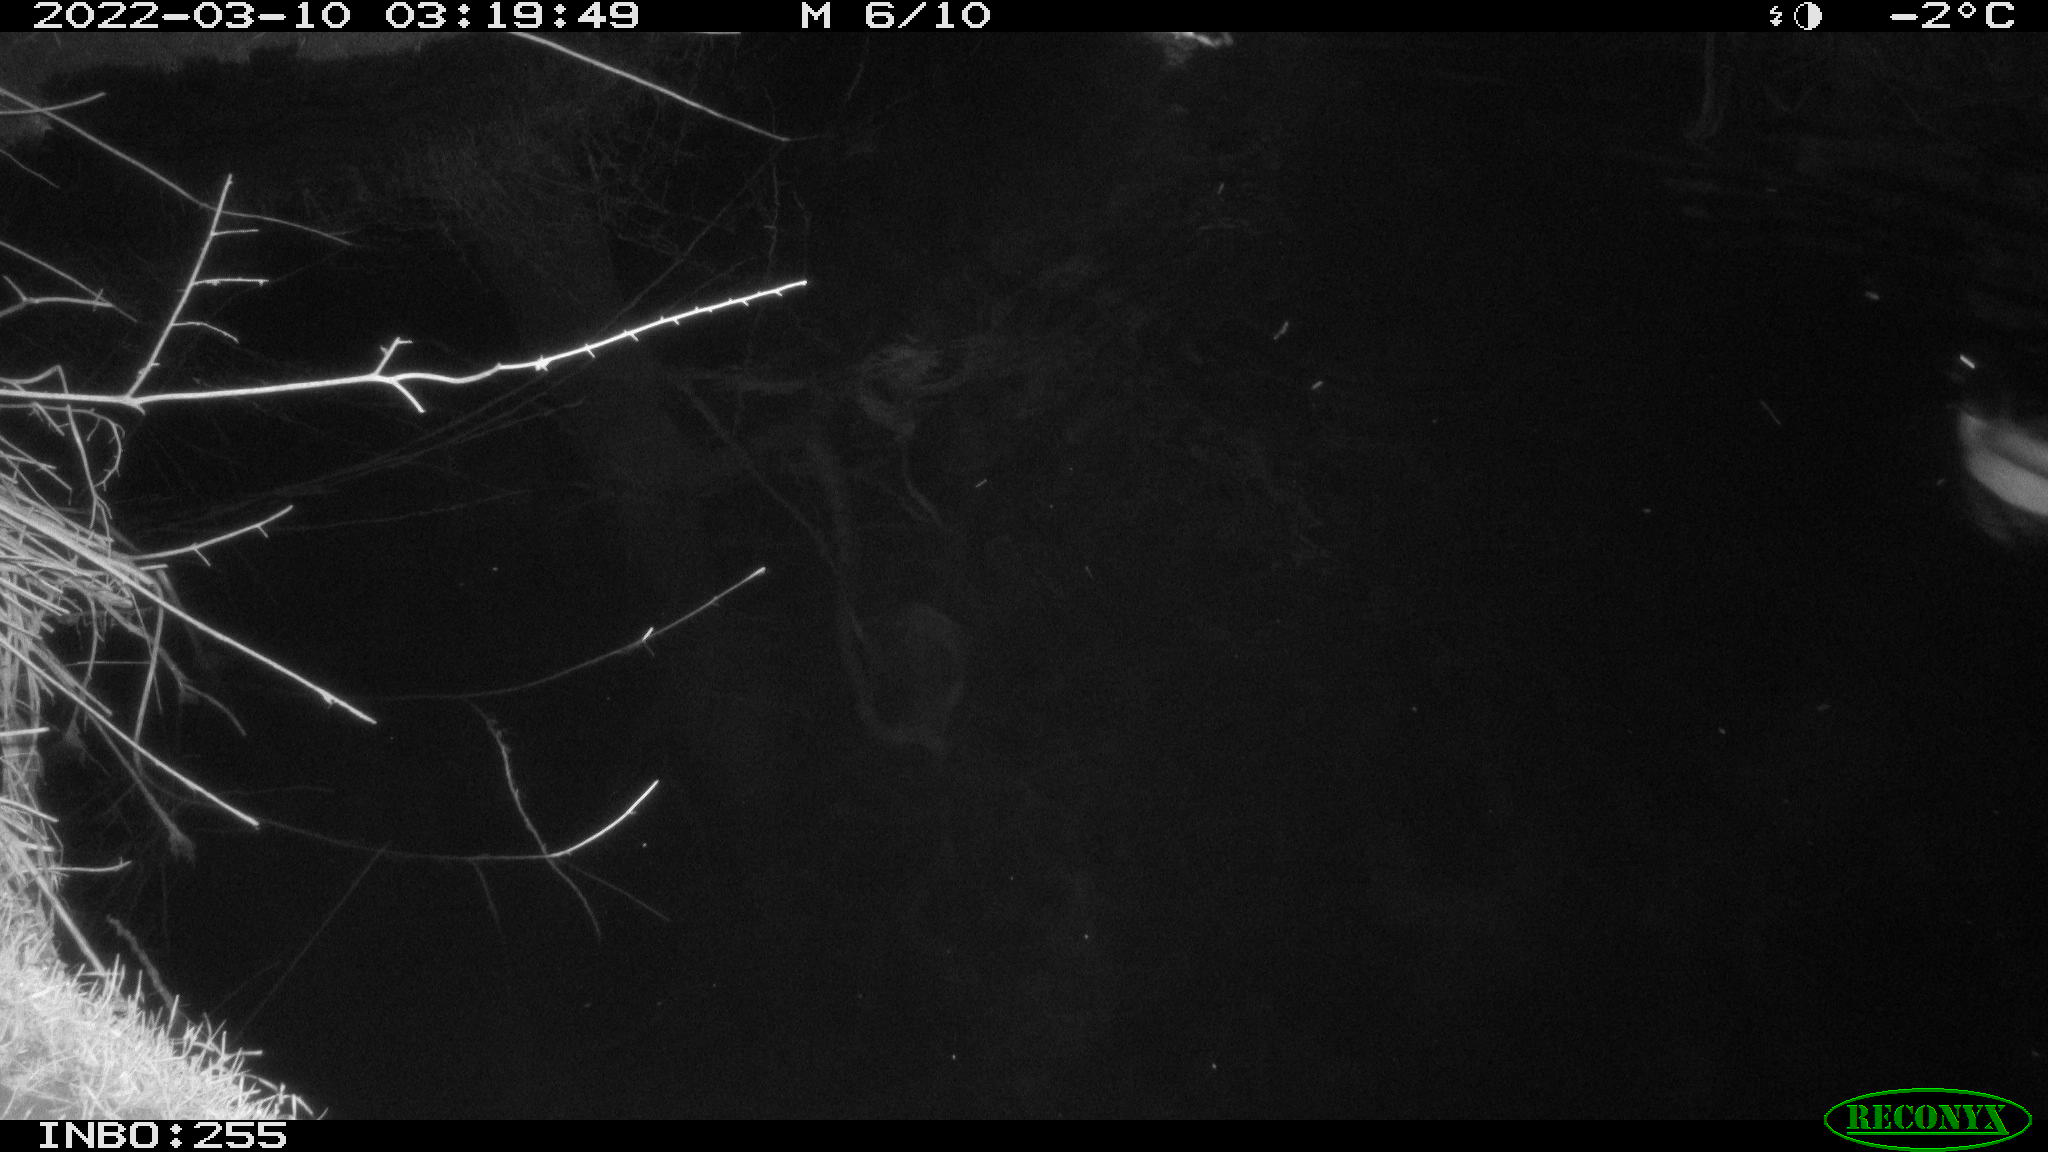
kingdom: Animalia
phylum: Chordata
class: Aves
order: Anseriformes
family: Anatidae
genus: Anas
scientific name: Anas platyrhynchos
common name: Mallard
